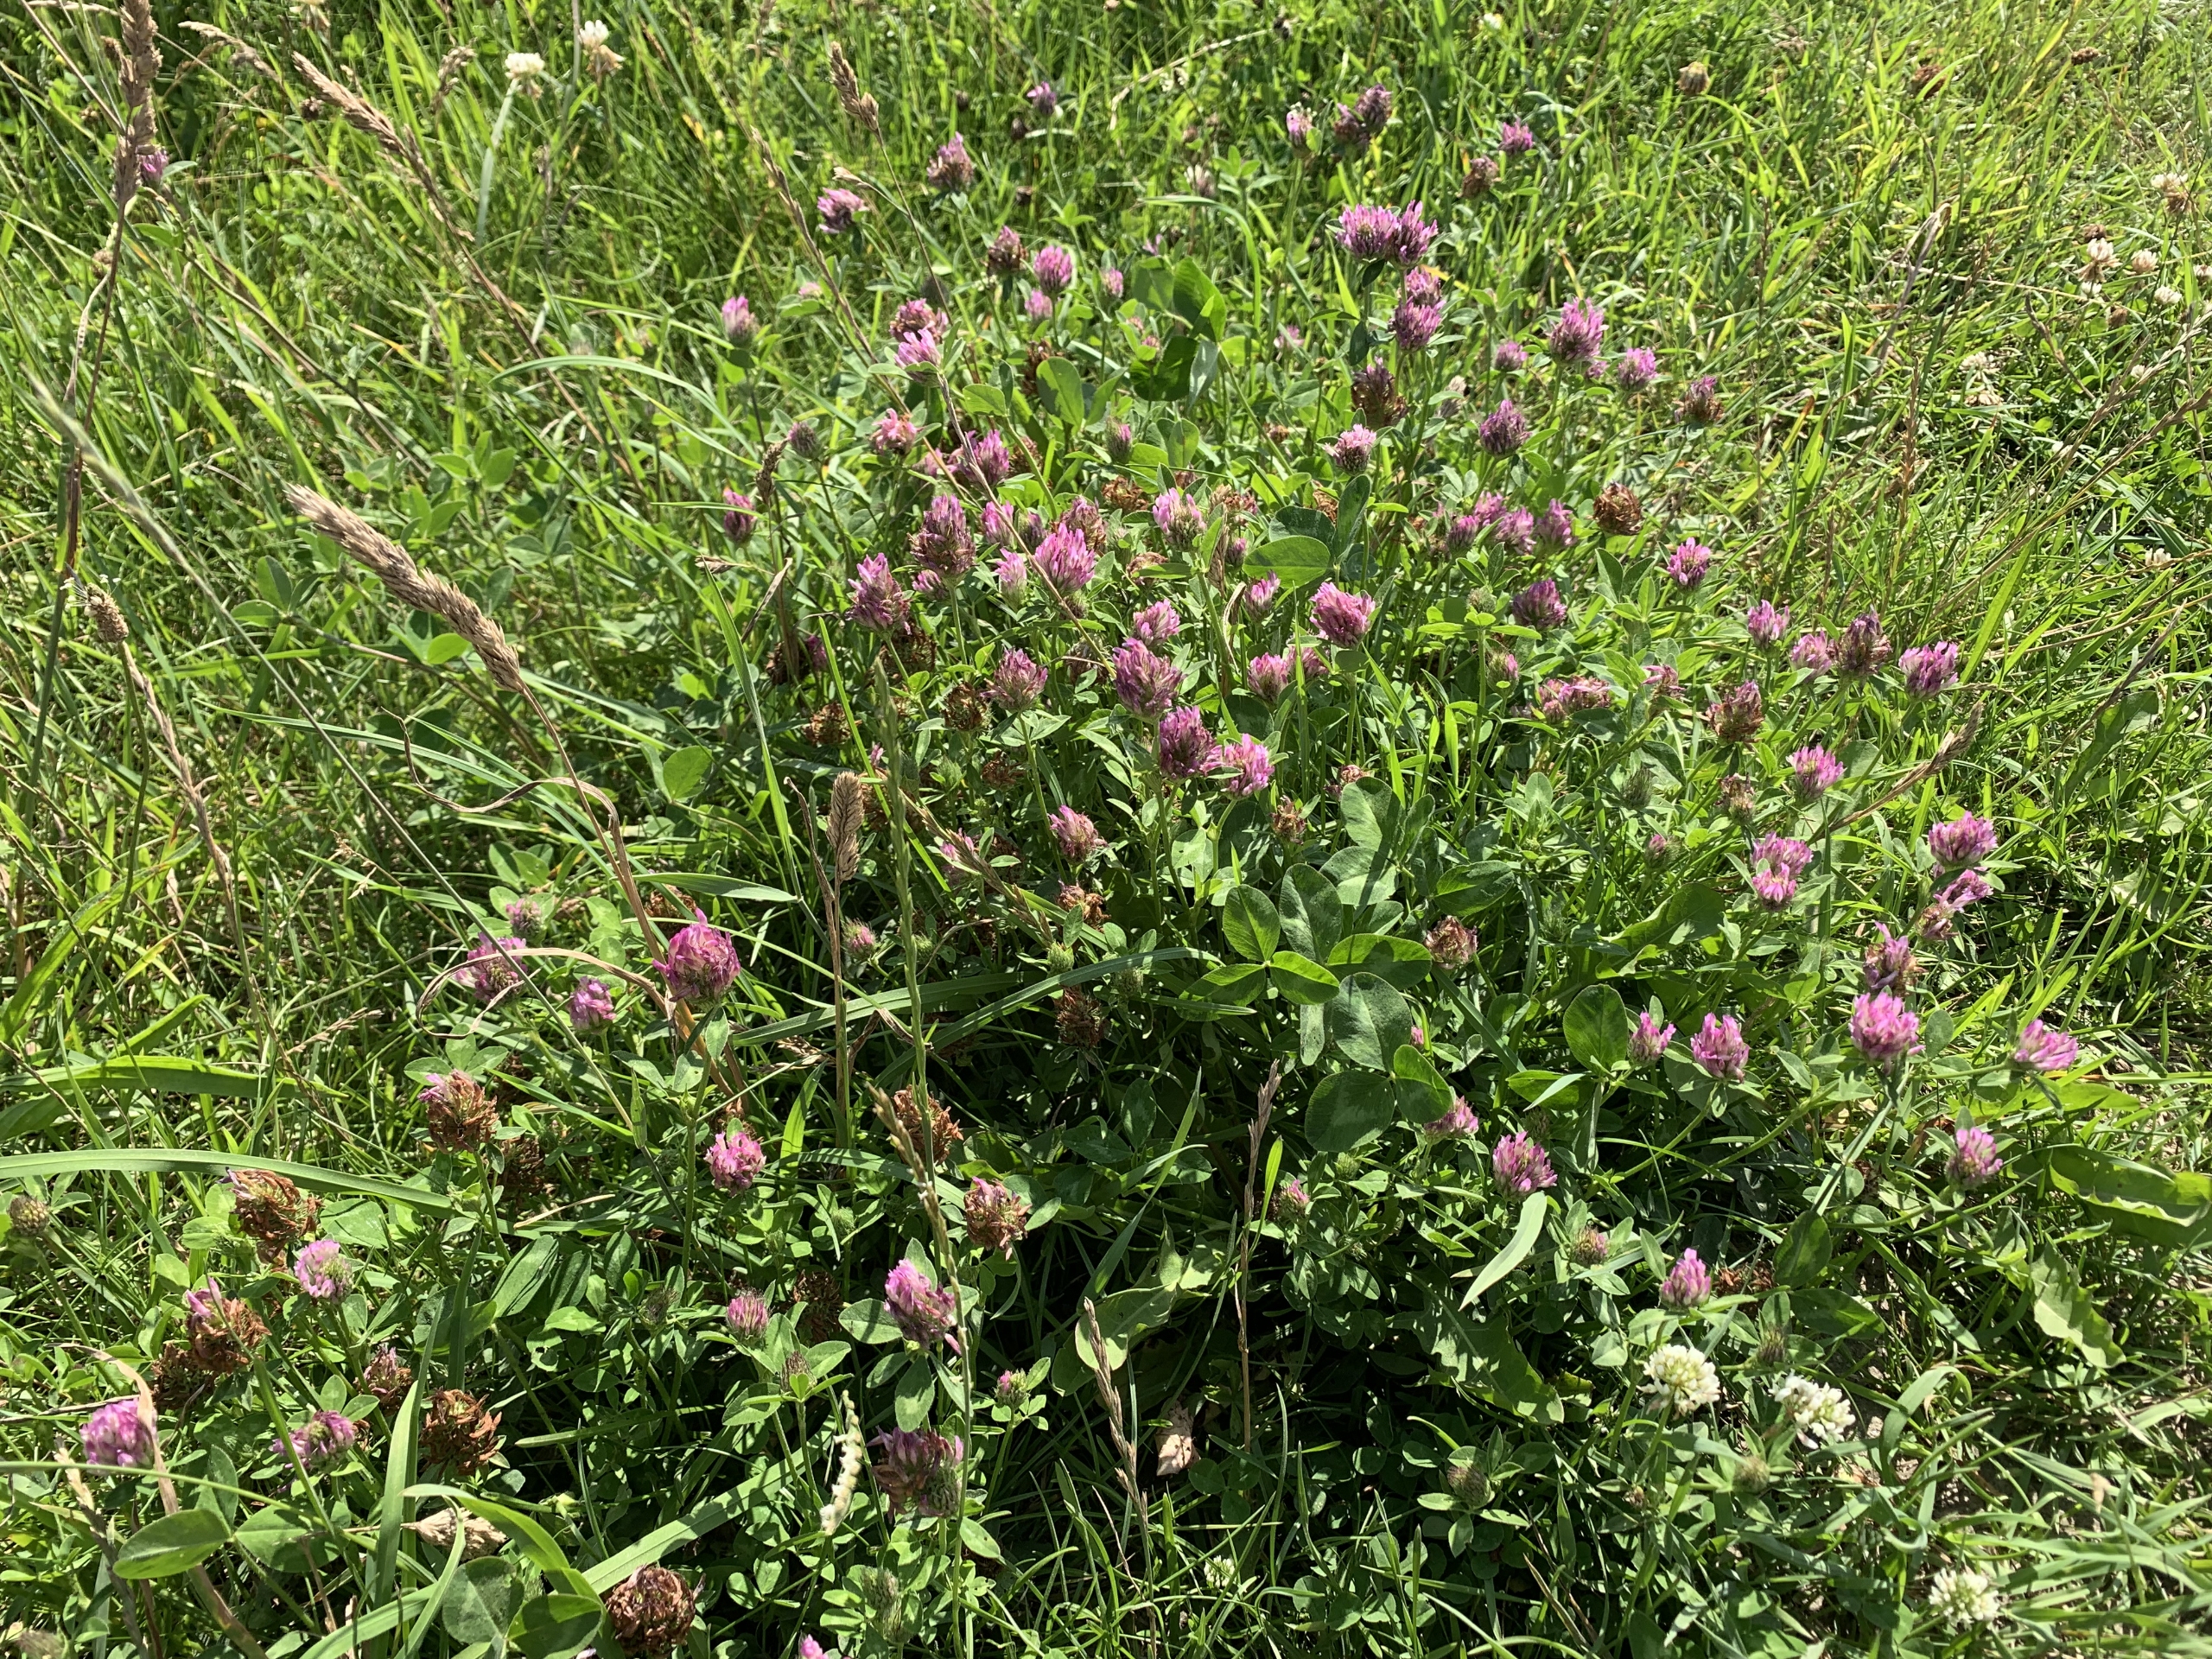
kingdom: Plantae
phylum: Tracheophyta
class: Magnoliopsida
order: Fabales
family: Fabaceae
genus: Trifolium
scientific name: Trifolium pratense
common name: Rød-kløver
